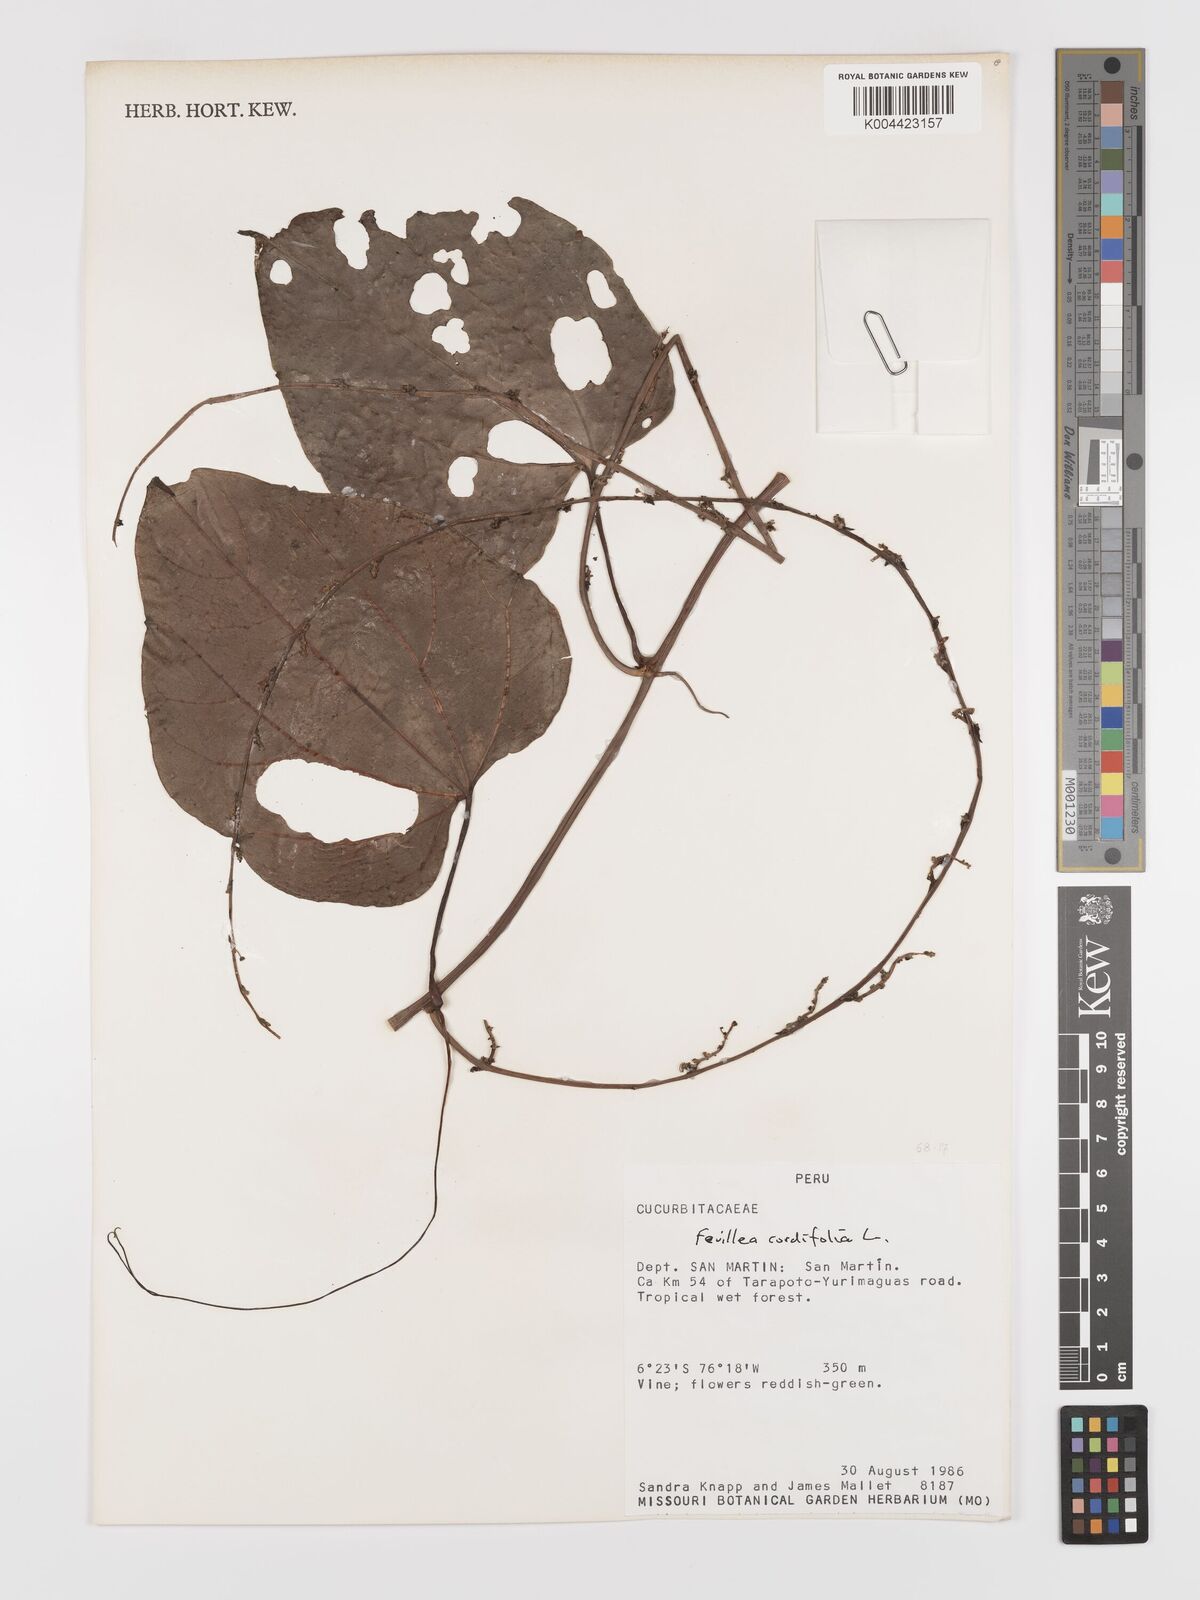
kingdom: Plantae
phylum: Tracheophyta
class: Magnoliopsida
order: Cucurbitales
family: Cucurbitaceae
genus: Fevillea
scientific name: Fevillea
